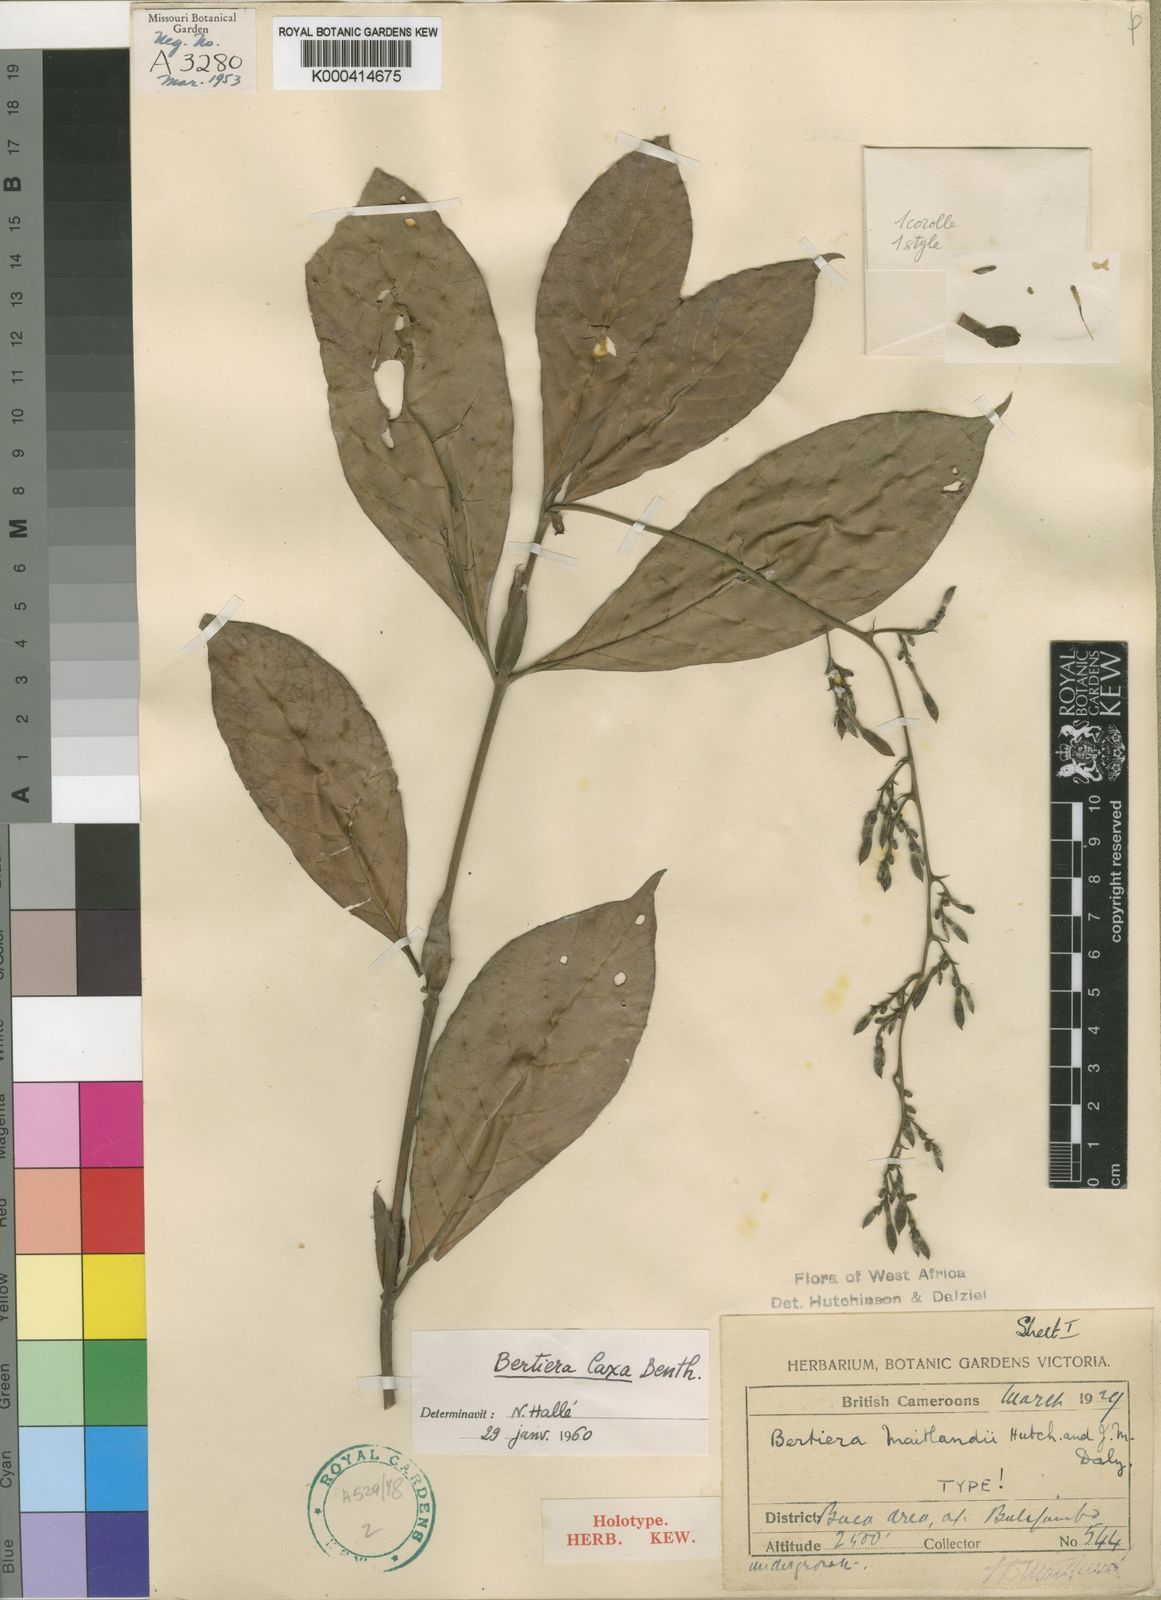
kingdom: Plantae
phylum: Tracheophyta
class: Magnoliopsida
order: Gentianales
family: Rubiaceae
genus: Bertiera
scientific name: Bertiera laxa
